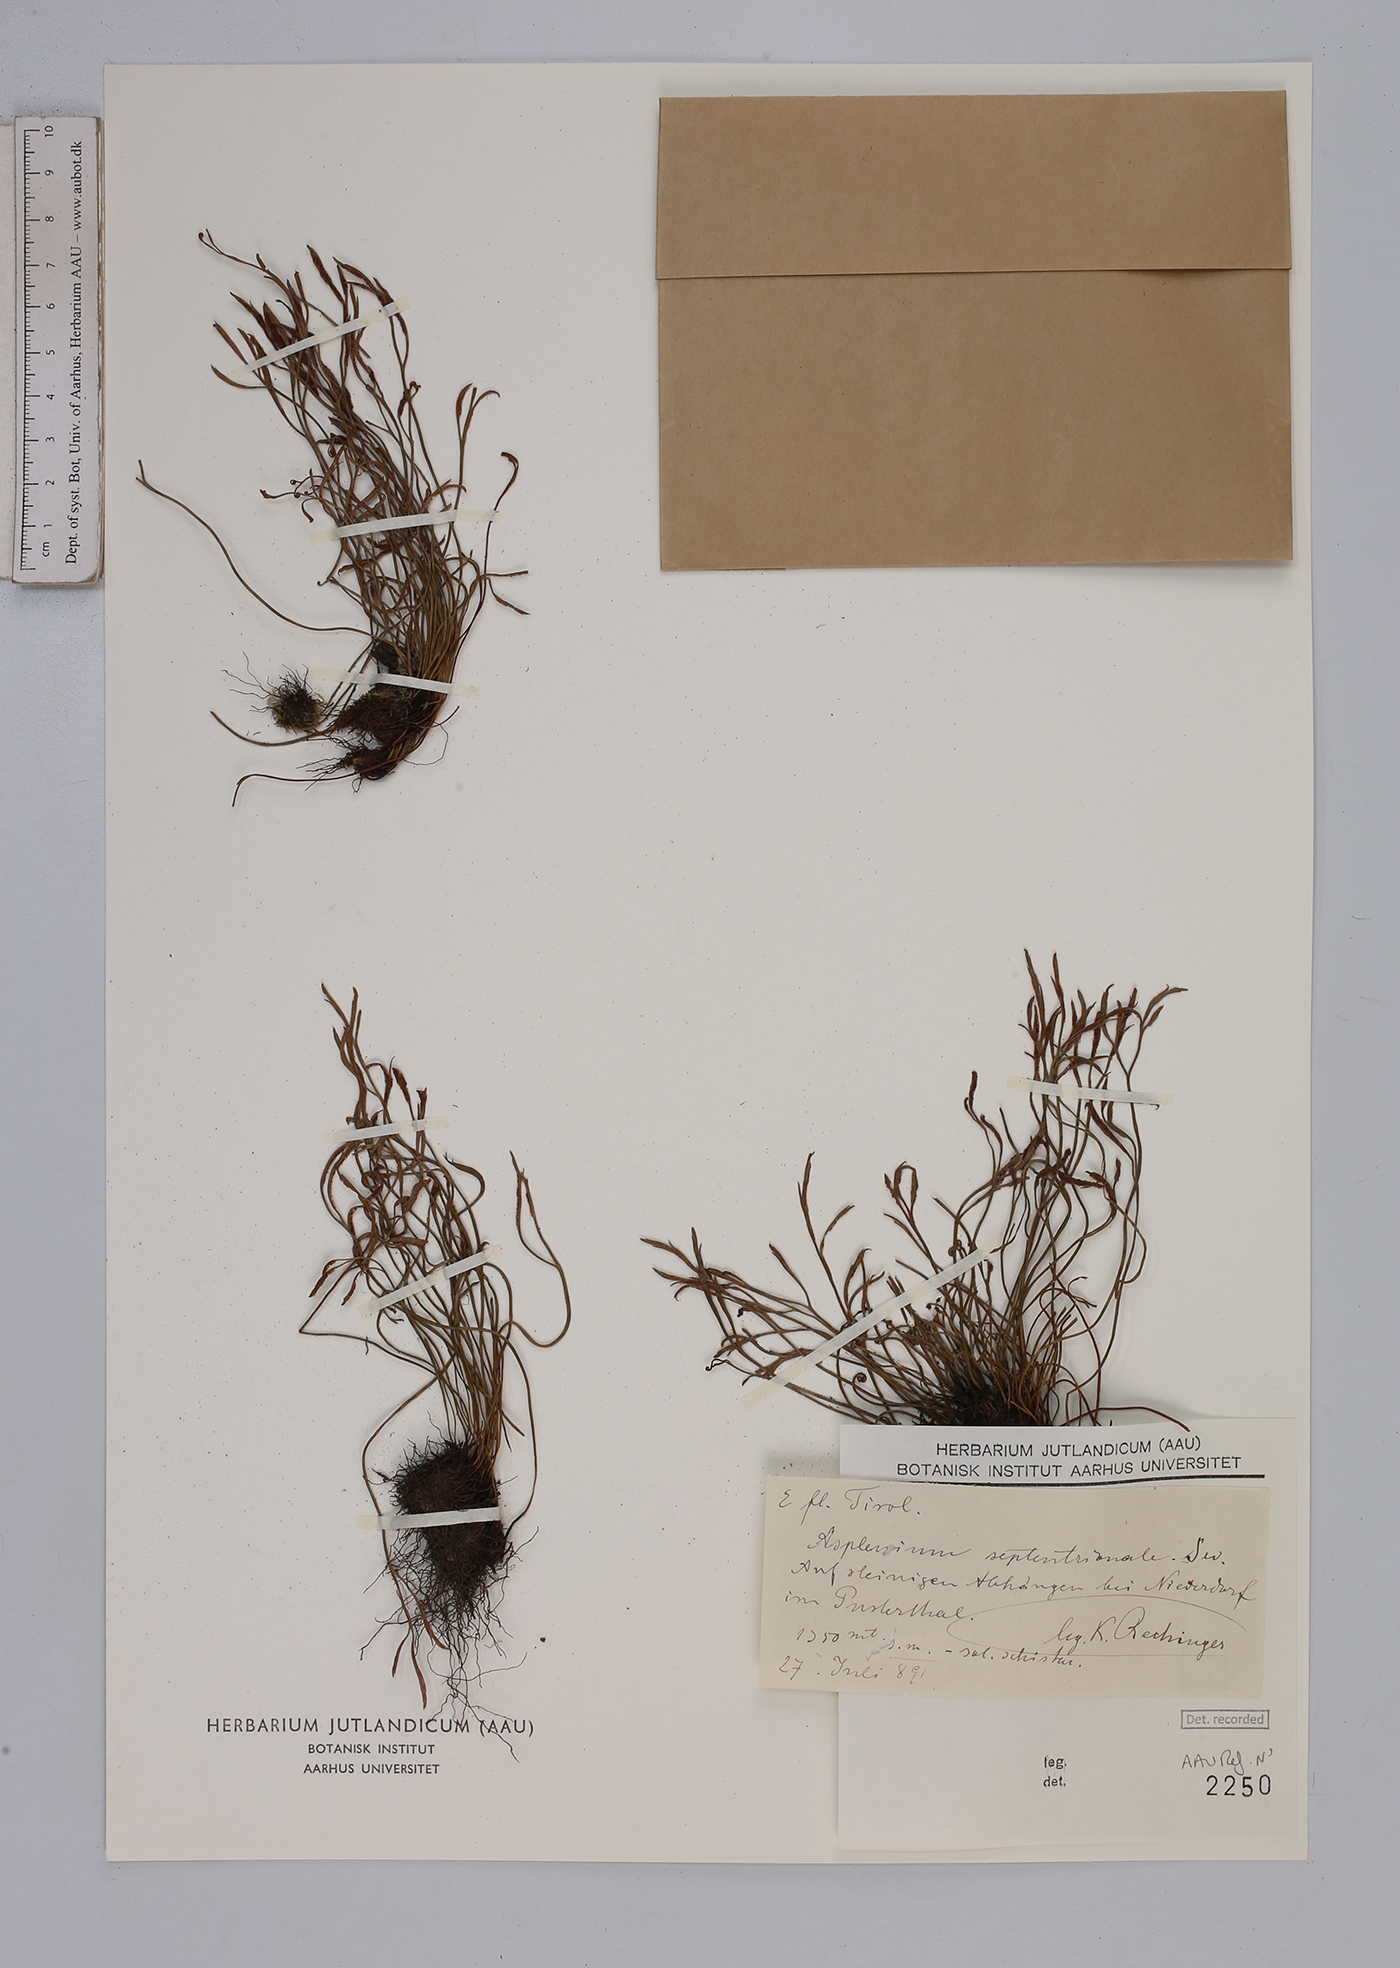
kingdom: Plantae
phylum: Tracheophyta
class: Polypodiopsida
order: Polypodiales
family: Aspleniaceae
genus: Asplenium
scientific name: Asplenium septentrionale
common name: Forked spleenwort
